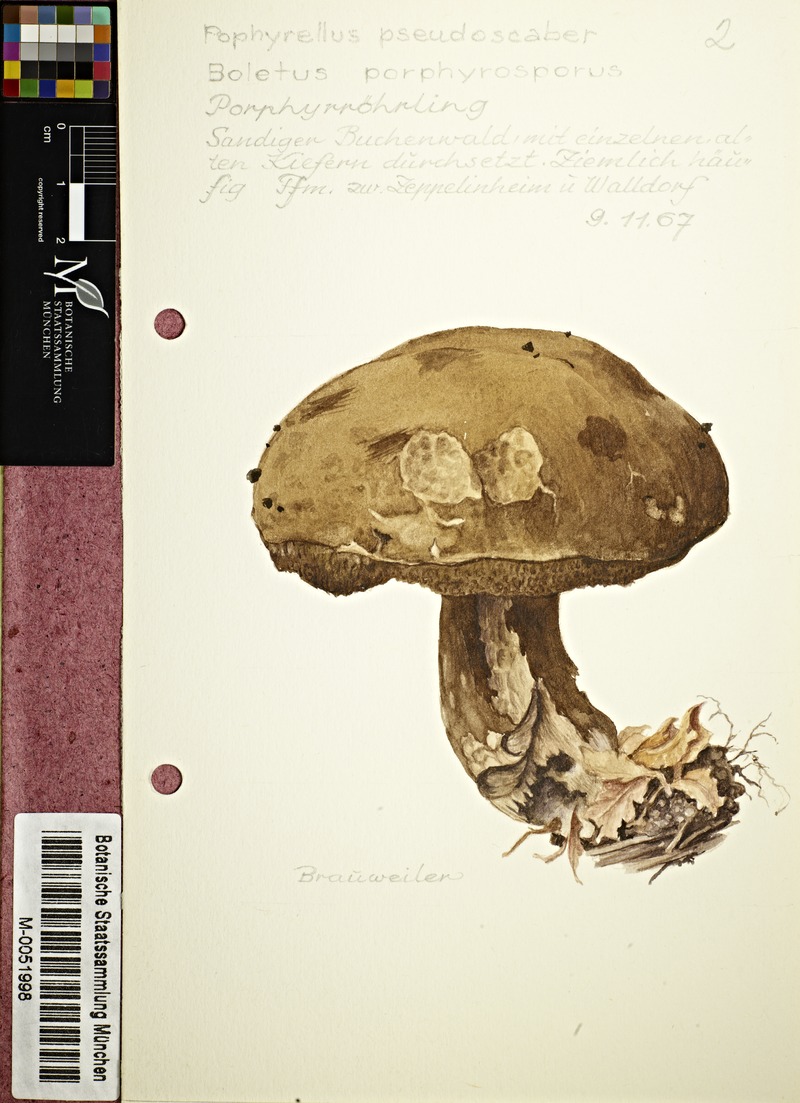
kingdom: Fungi
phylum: Basidiomycota
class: Agaricomycetes
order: Boletales
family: Boletaceae
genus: Porphyrellus
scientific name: Porphyrellus porphyrosporus
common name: Dusky bolete
